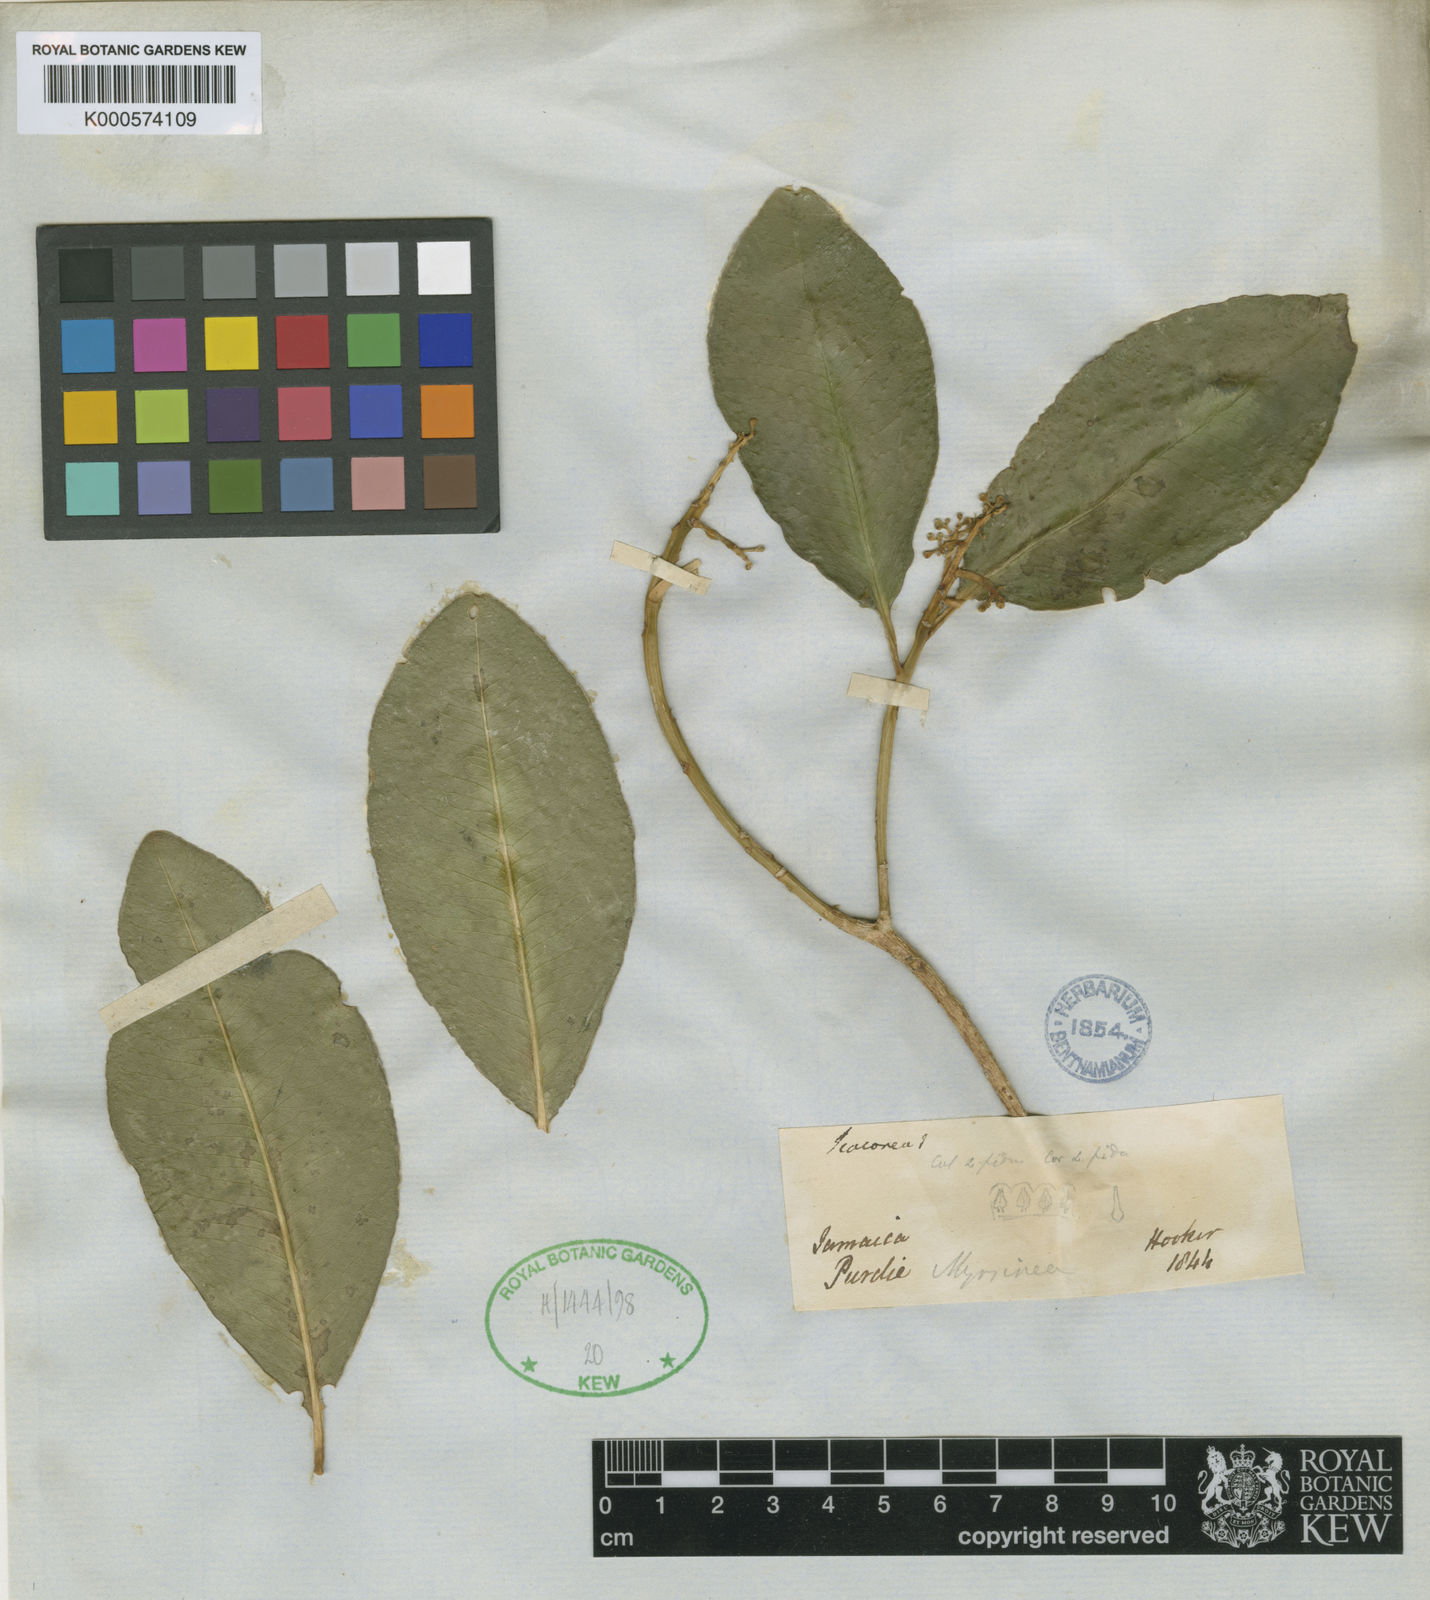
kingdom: Plantae
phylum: Tracheophyta
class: Magnoliopsida
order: Ericales
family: Primulaceae
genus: Wallenia
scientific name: Wallenia purdieana
